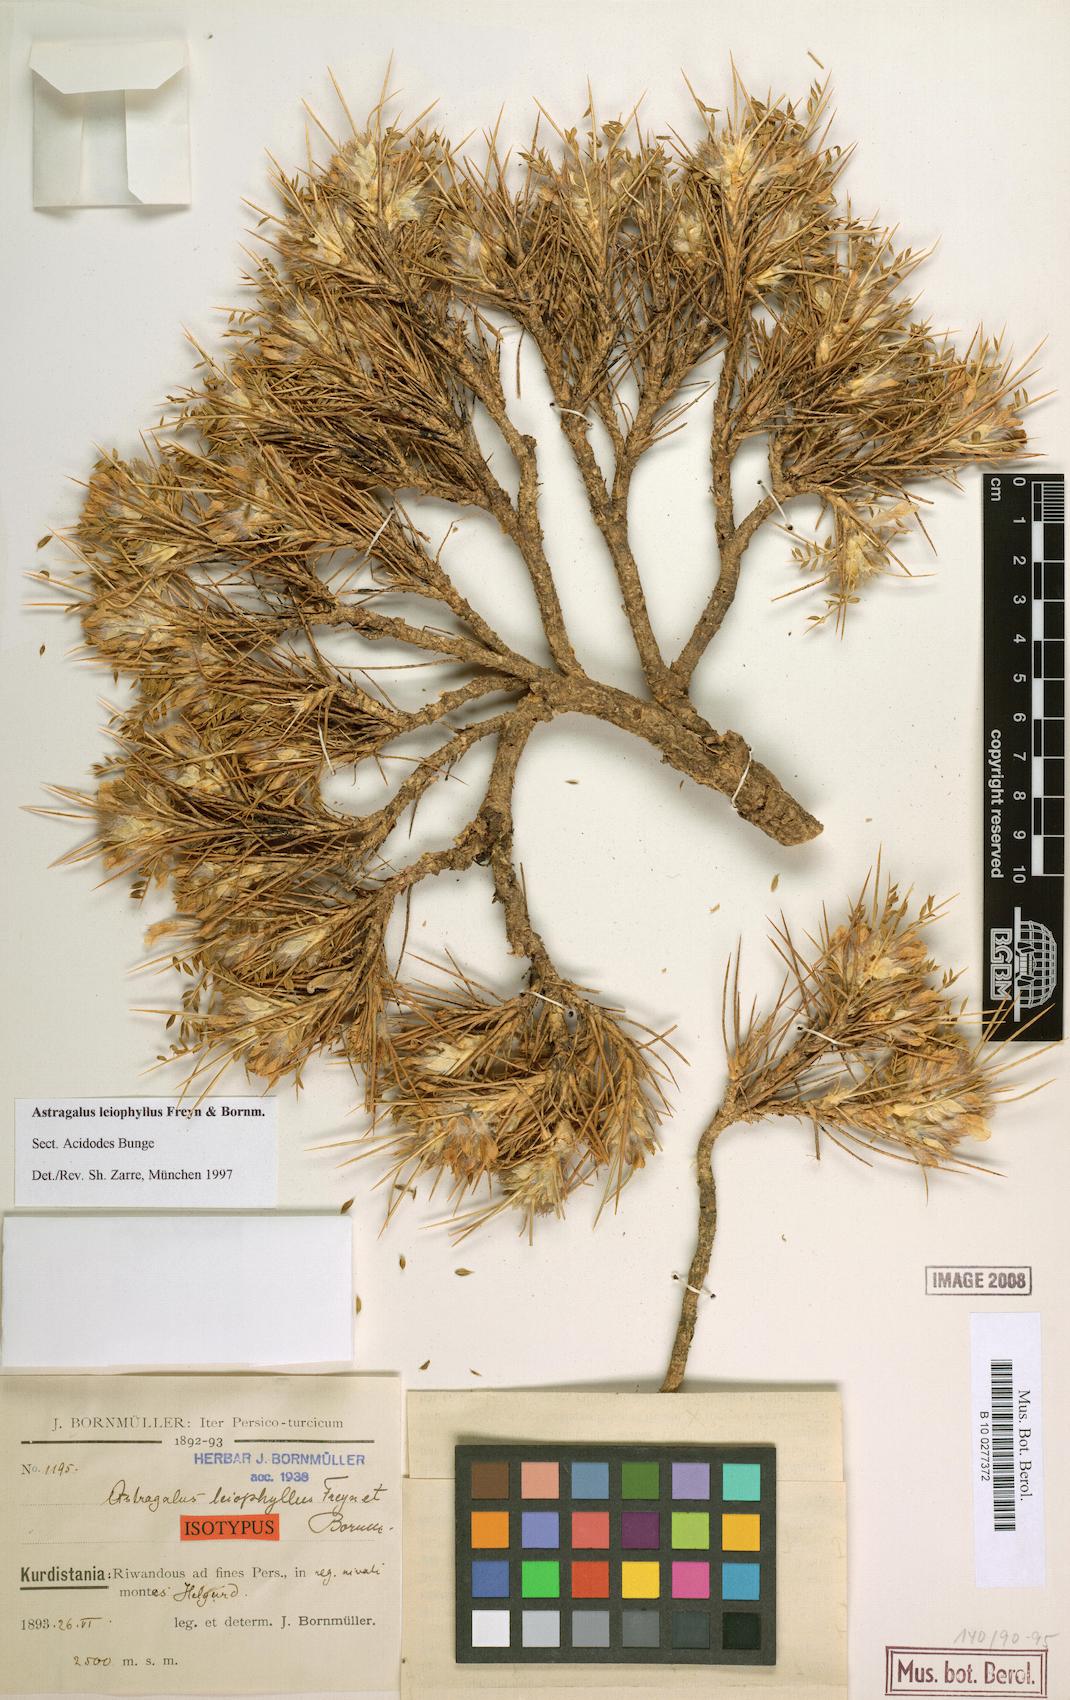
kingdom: Plantae
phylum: Tracheophyta
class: Magnoliopsida
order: Fabales
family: Fabaceae
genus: Astragalus
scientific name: Astragalus leiophyllus
